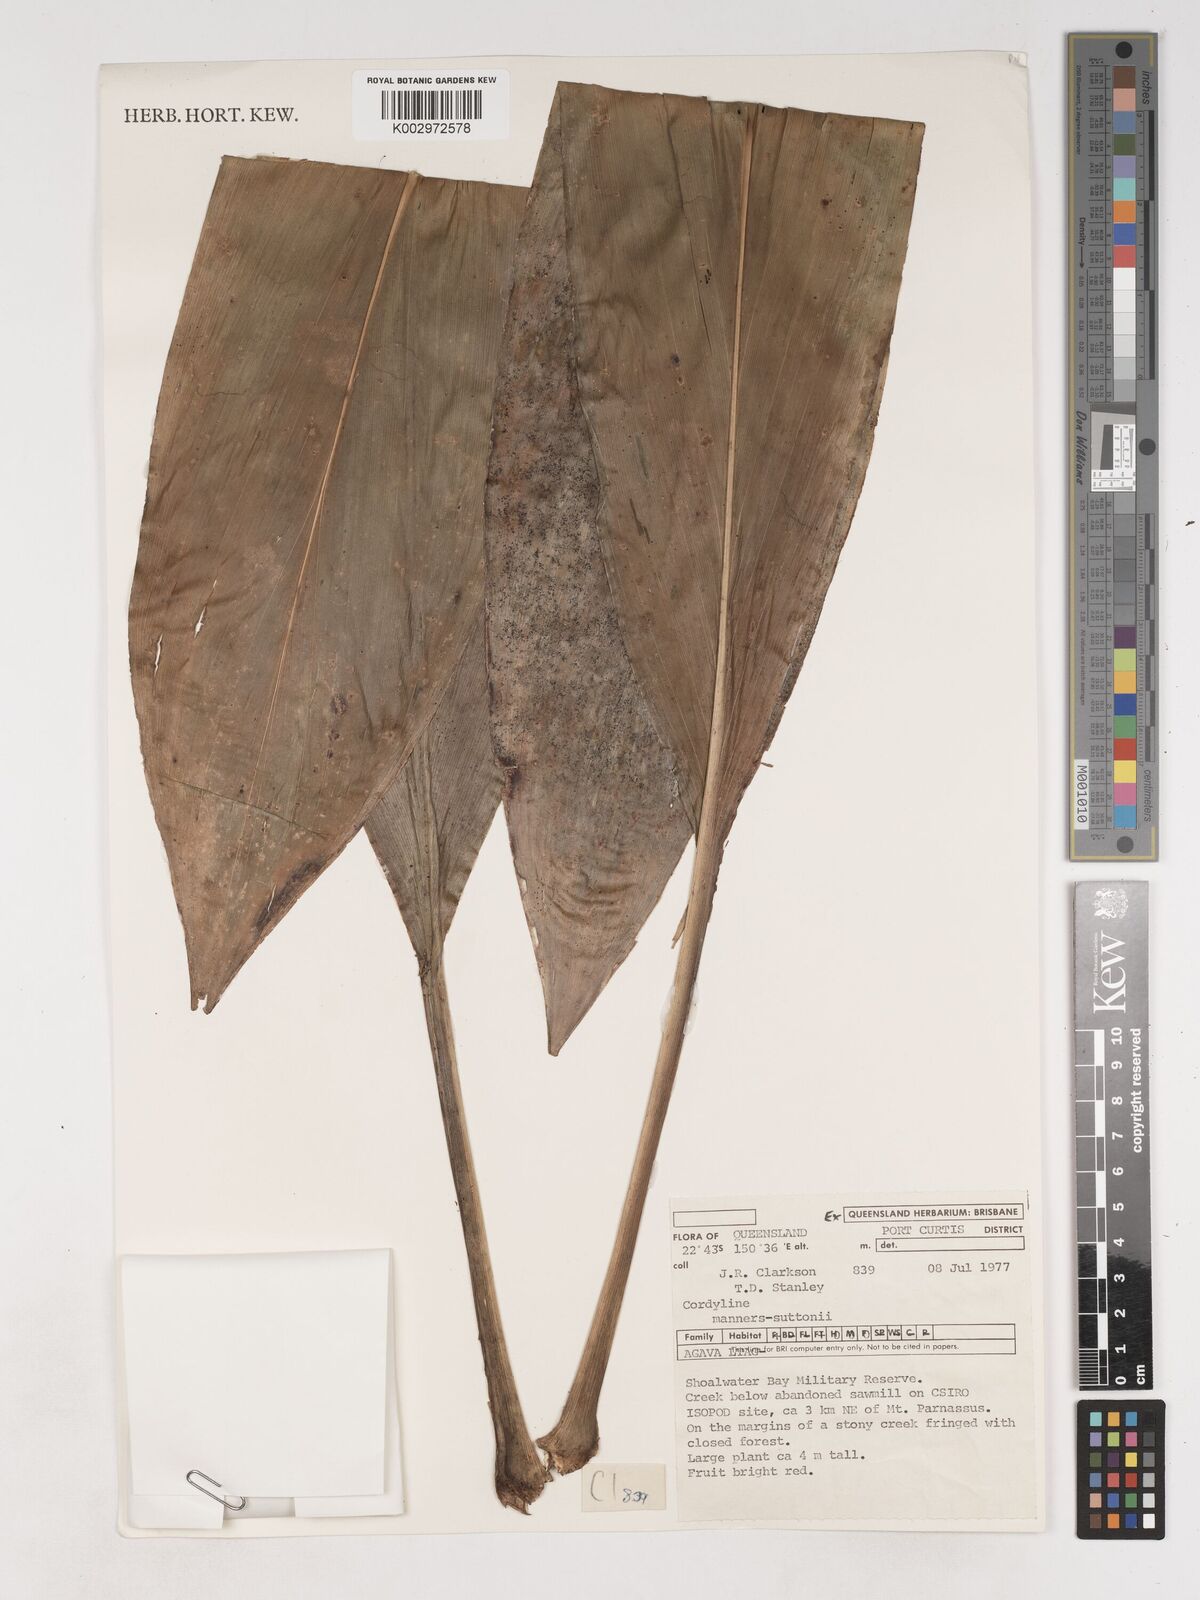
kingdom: Plantae
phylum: Tracheophyta
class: Liliopsida
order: Asparagales
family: Asparagaceae
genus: Cordyline
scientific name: Cordyline fruticosa
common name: Good-luck-plant
